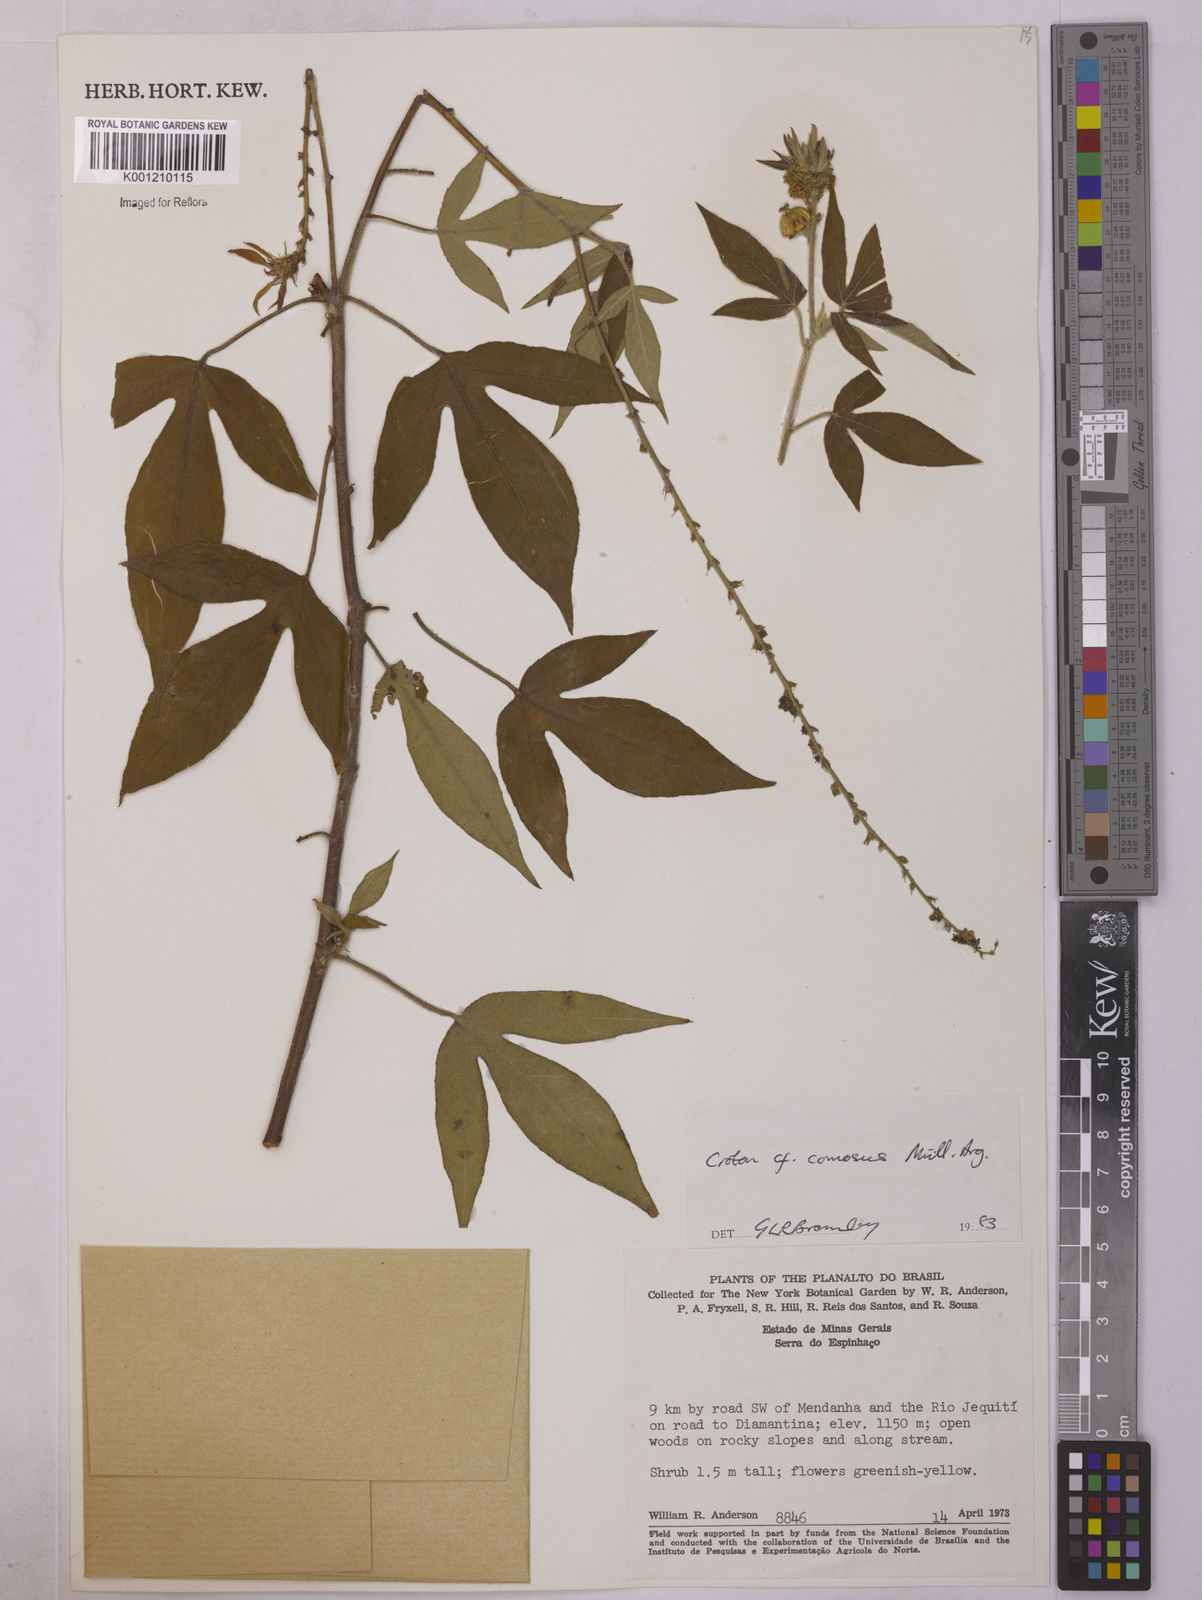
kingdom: Plantae
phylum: Tracheophyta
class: Magnoliopsida
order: Malpighiales
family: Euphorbiaceae
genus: Astraea
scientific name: Astraea
